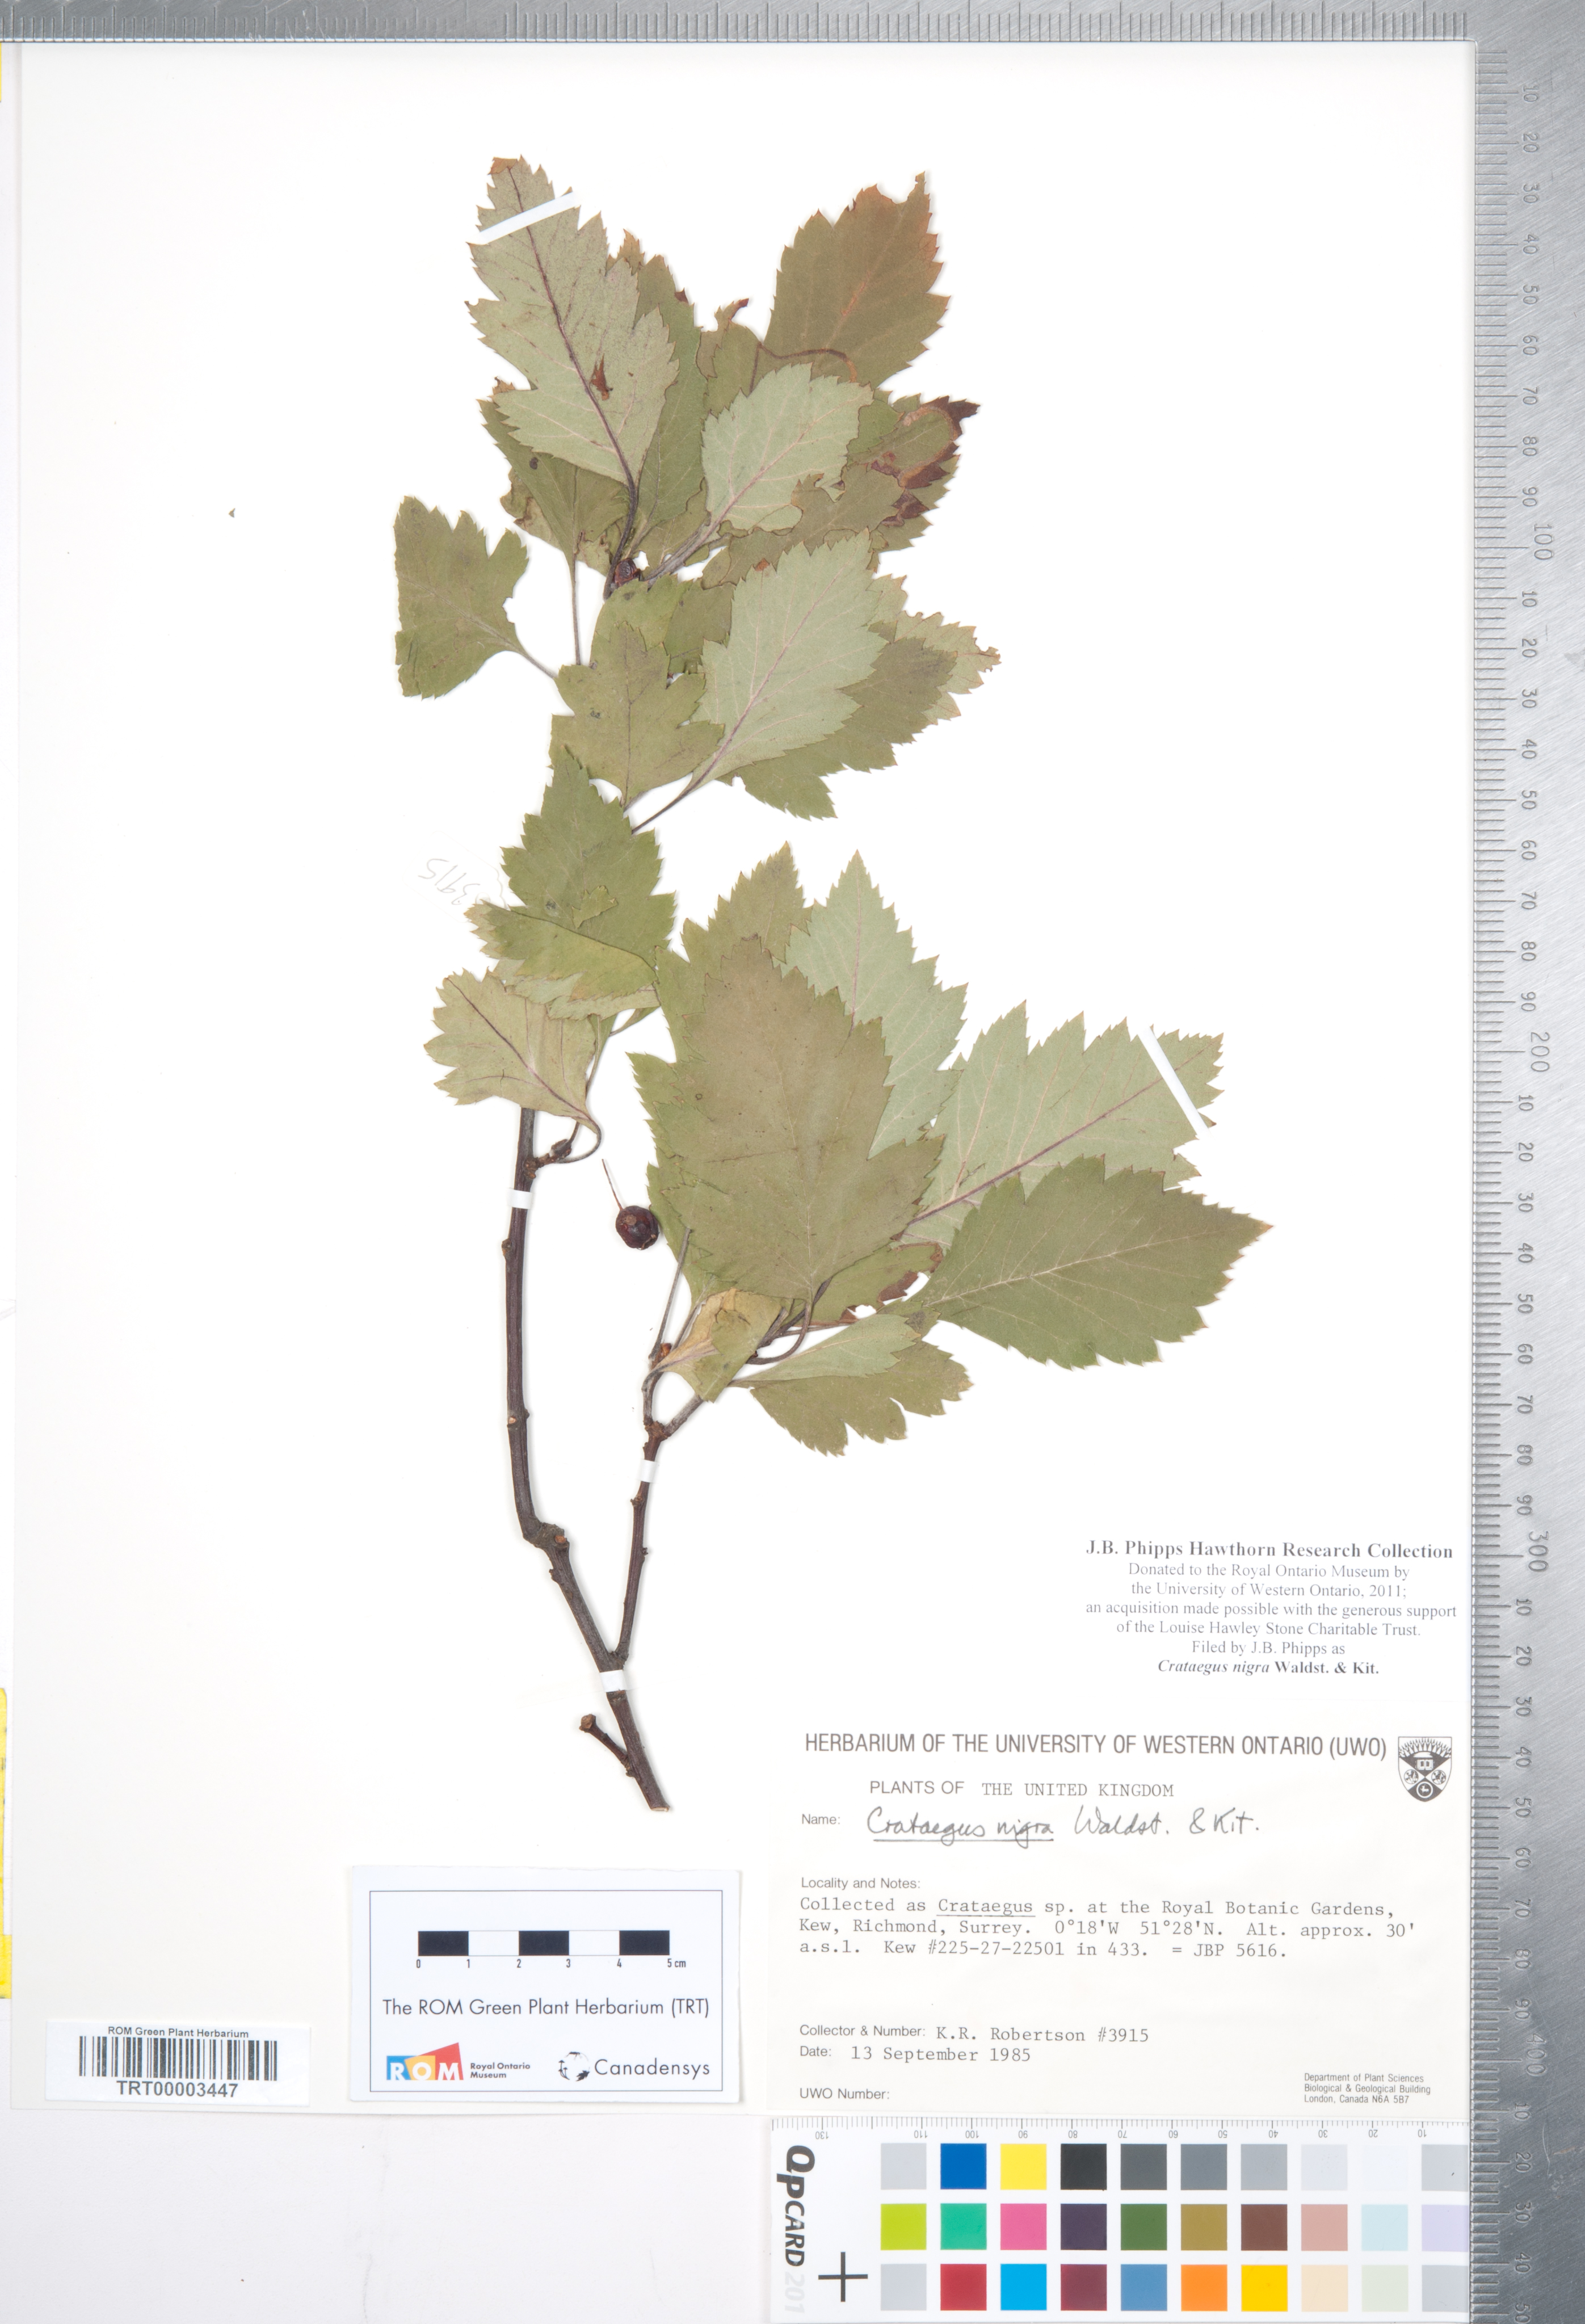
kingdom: Plantae
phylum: Tracheophyta
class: Magnoliopsida
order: Rosales
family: Rosaceae
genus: Crataegus
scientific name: Crataegus nigra
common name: Hungarian thorn
